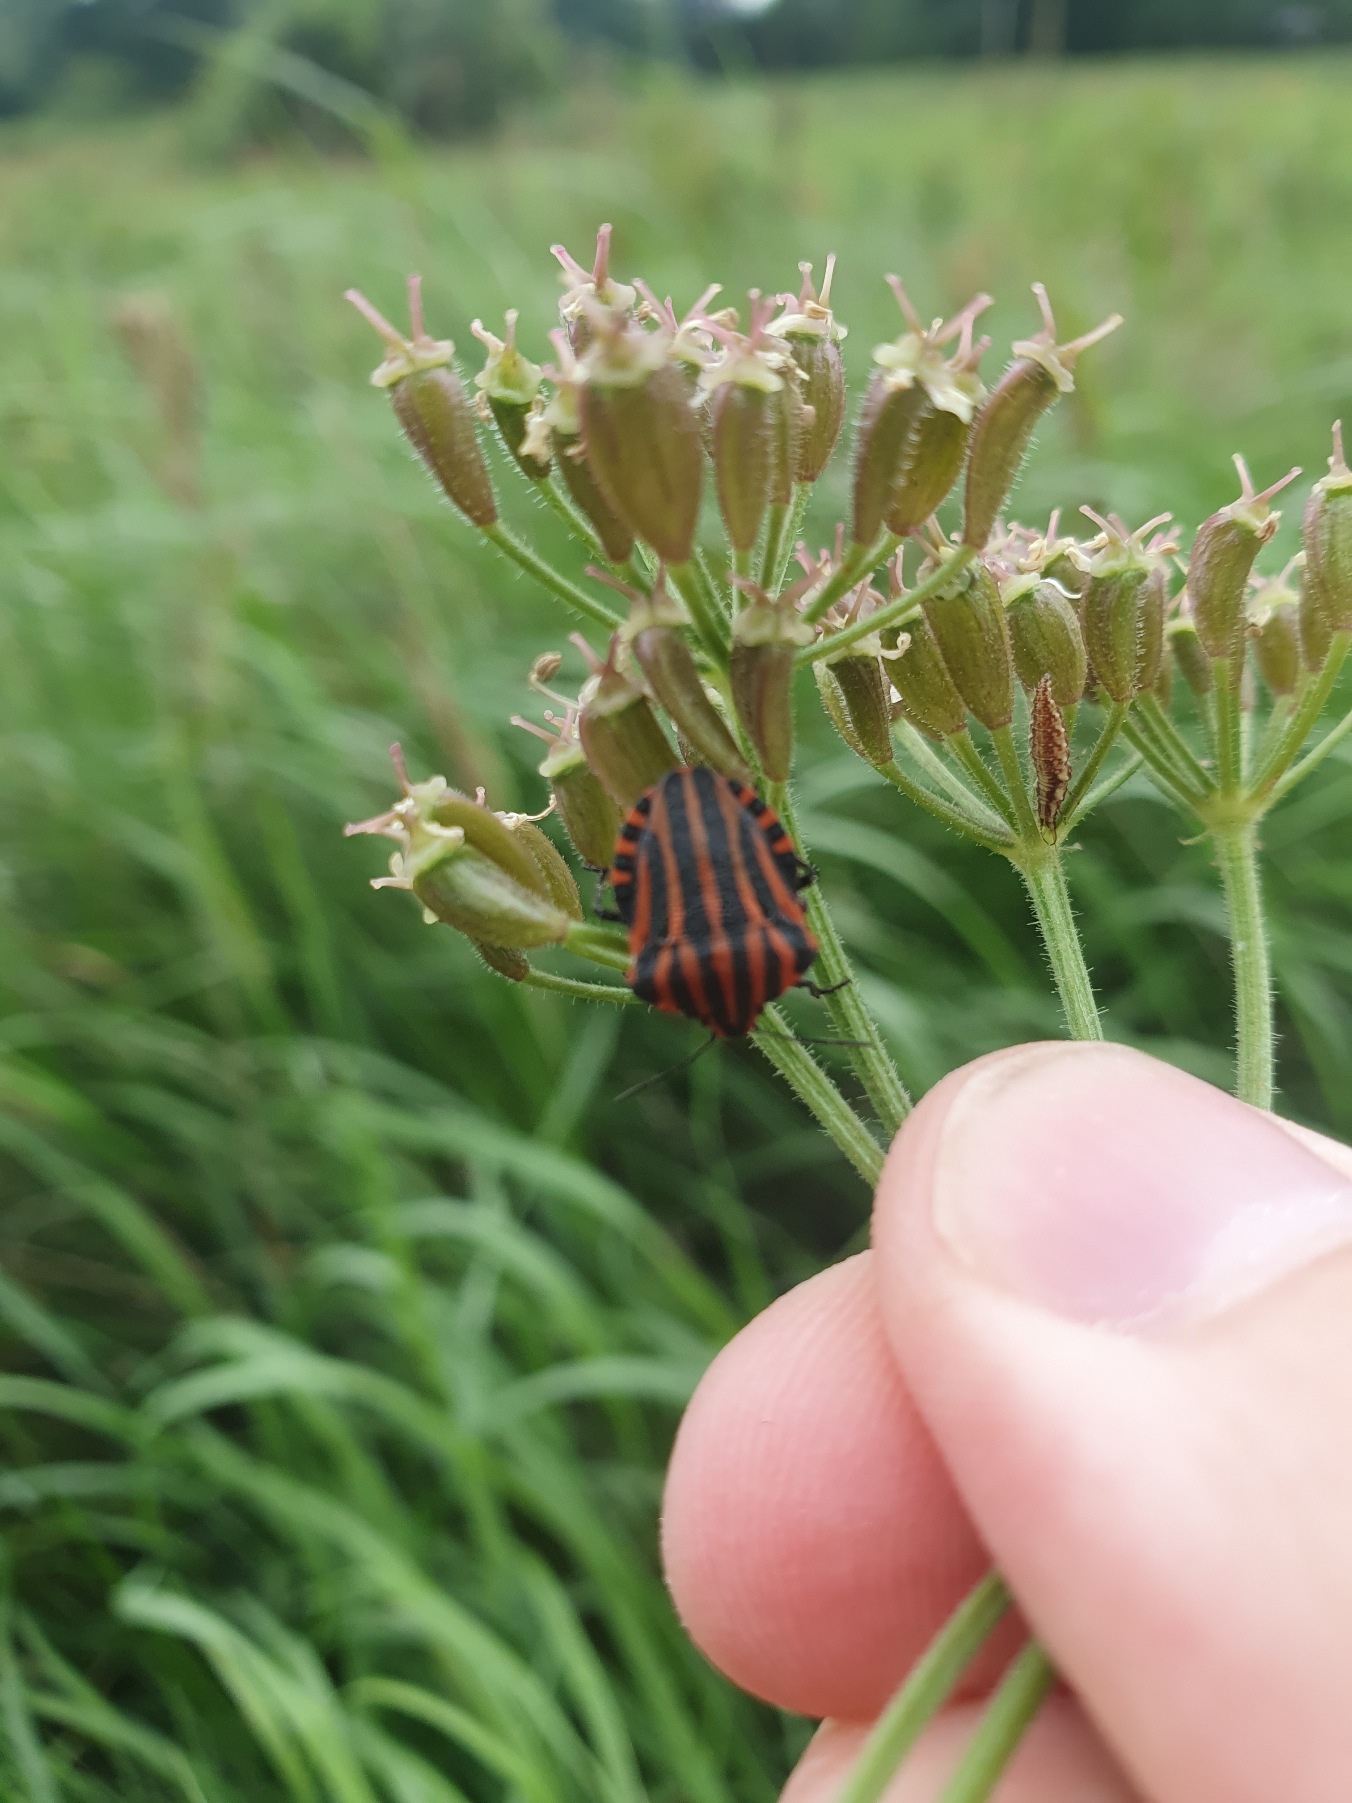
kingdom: Animalia
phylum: Arthropoda
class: Insecta
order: Hemiptera
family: Pentatomidae
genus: Graphosoma
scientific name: Graphosoma italicum
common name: Stribetæge
